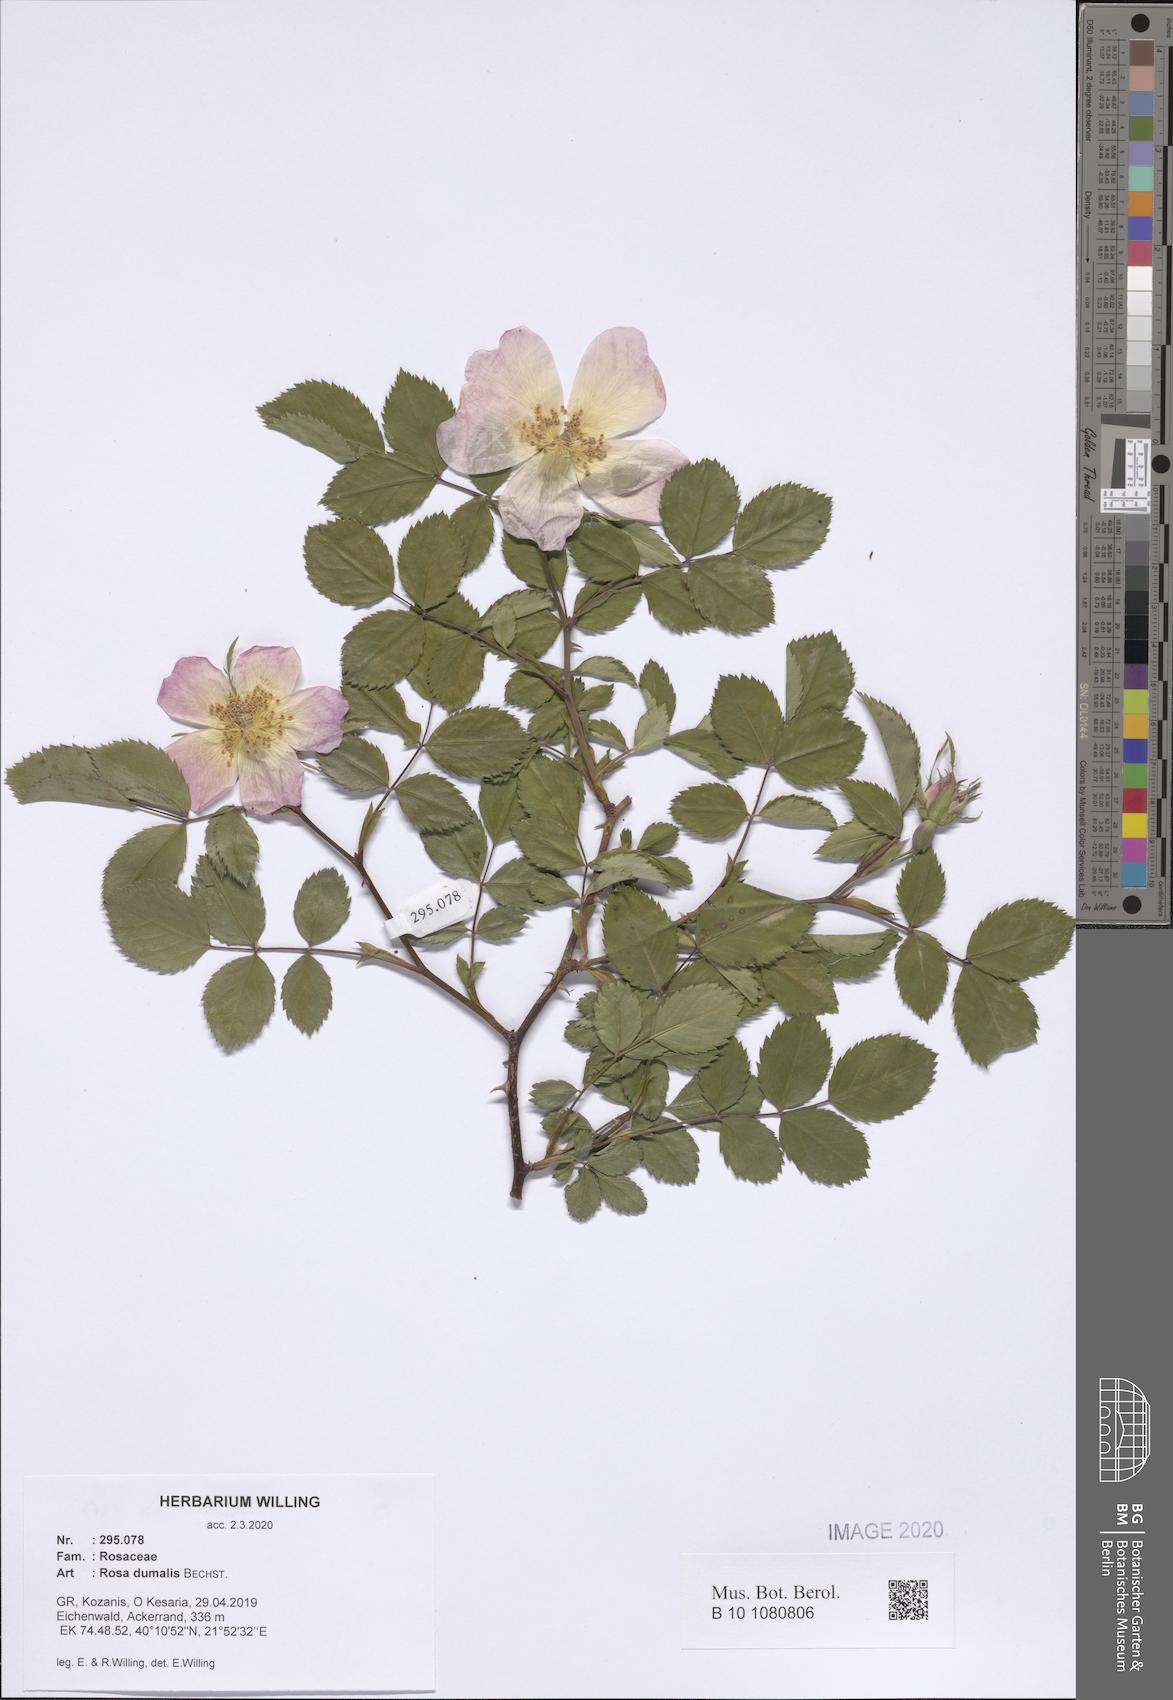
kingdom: Plantae
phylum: Tracheophyta
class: Magnoliopsida
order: Rosales
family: Rosaceae
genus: Rosa
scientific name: Rosa dumalis
